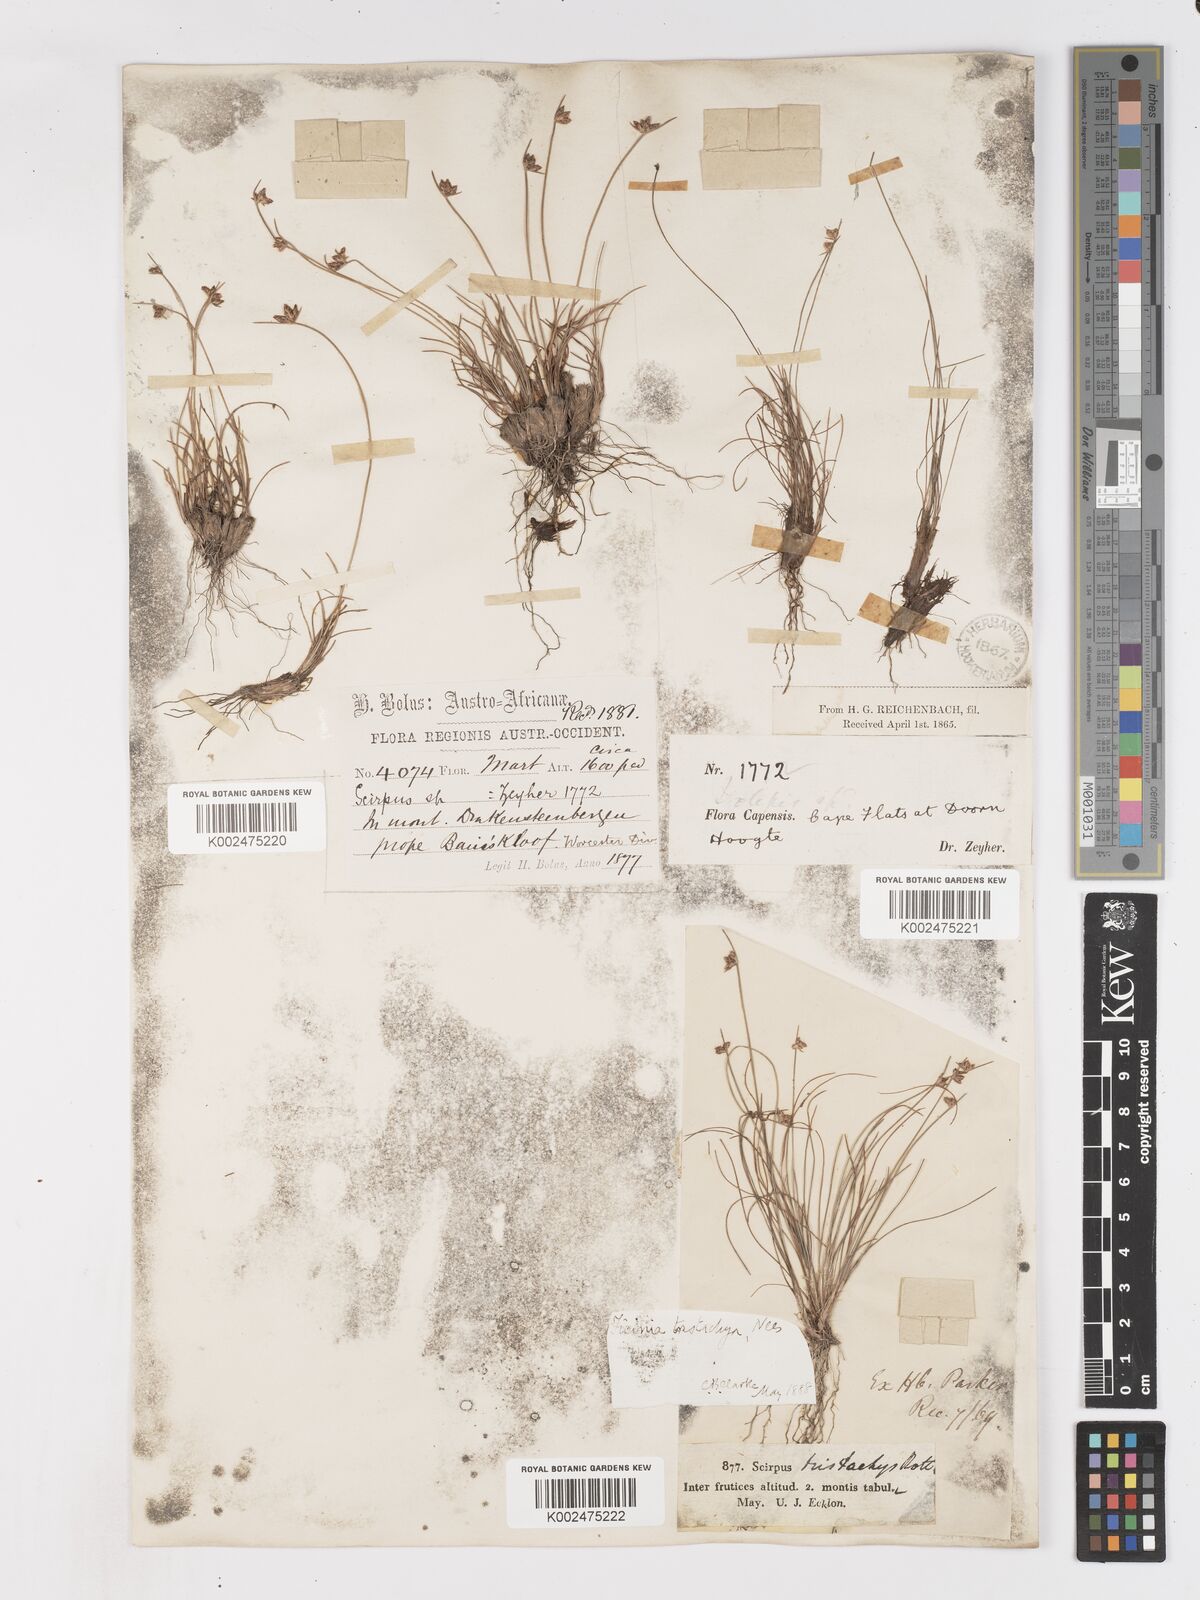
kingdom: Plantae
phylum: Tracheophyta
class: Liliopsida
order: Poales
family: Cyperaceae
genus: Ficinia
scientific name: Ficinia tristachya
